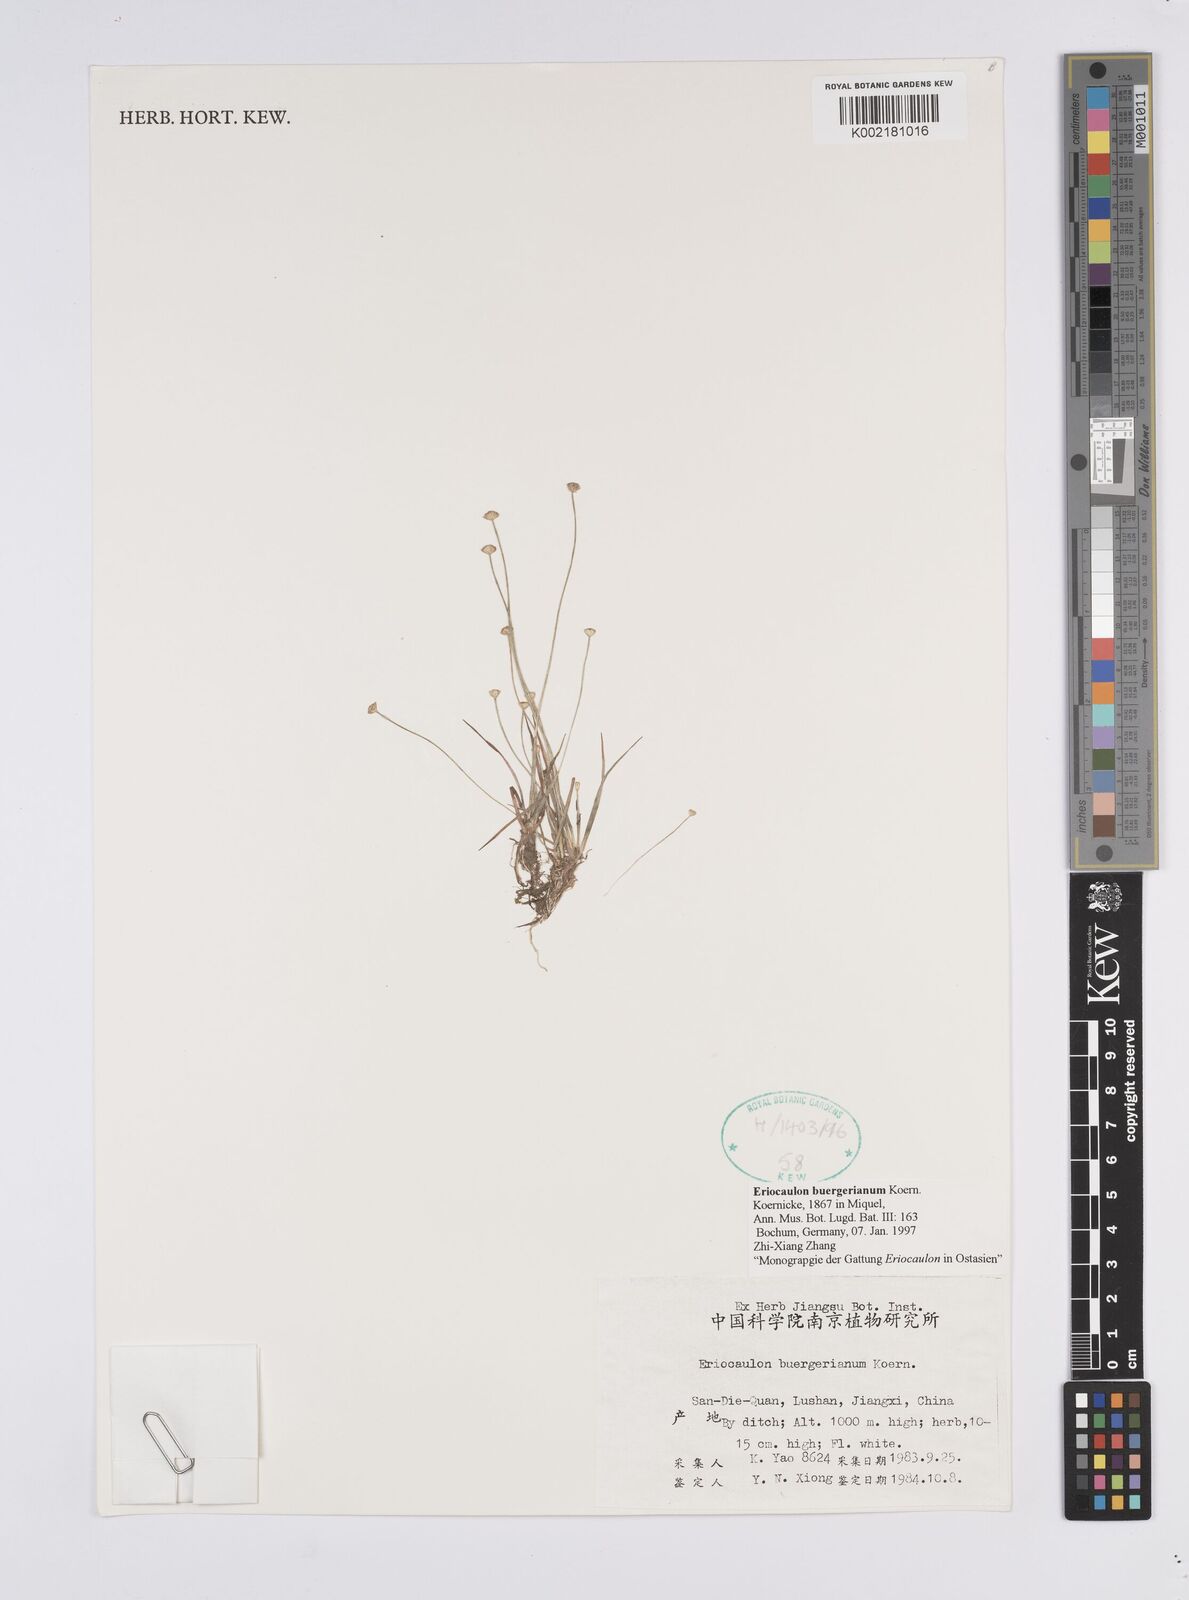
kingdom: Plantae
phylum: Tracheophyta
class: Liliopsida
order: Poales
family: Eriocaulaceae
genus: Eriocaulon
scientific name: Eriocaulon buergerianum
